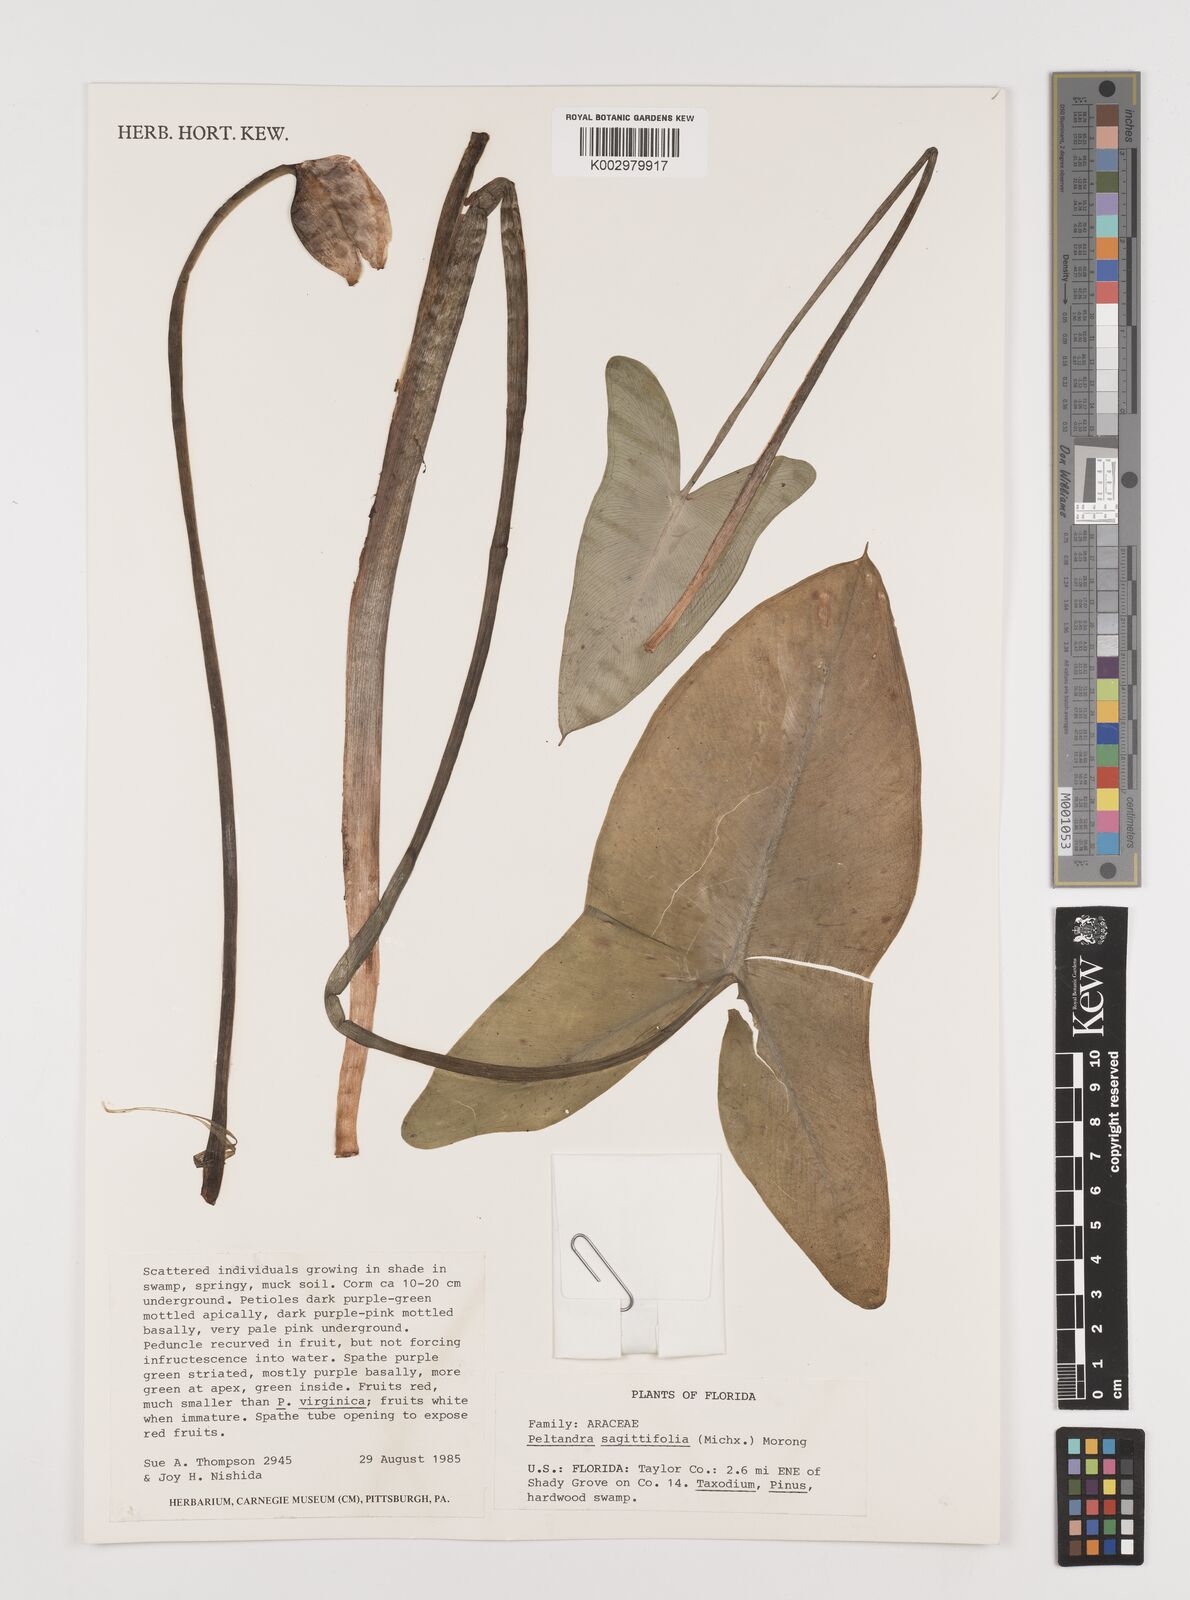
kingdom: Plantae
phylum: Tracheophyta
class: Liliopsida
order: Alismatales
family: Araceae
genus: Peltandra
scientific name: Peltandra sagittifolia
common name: White arrow arum
